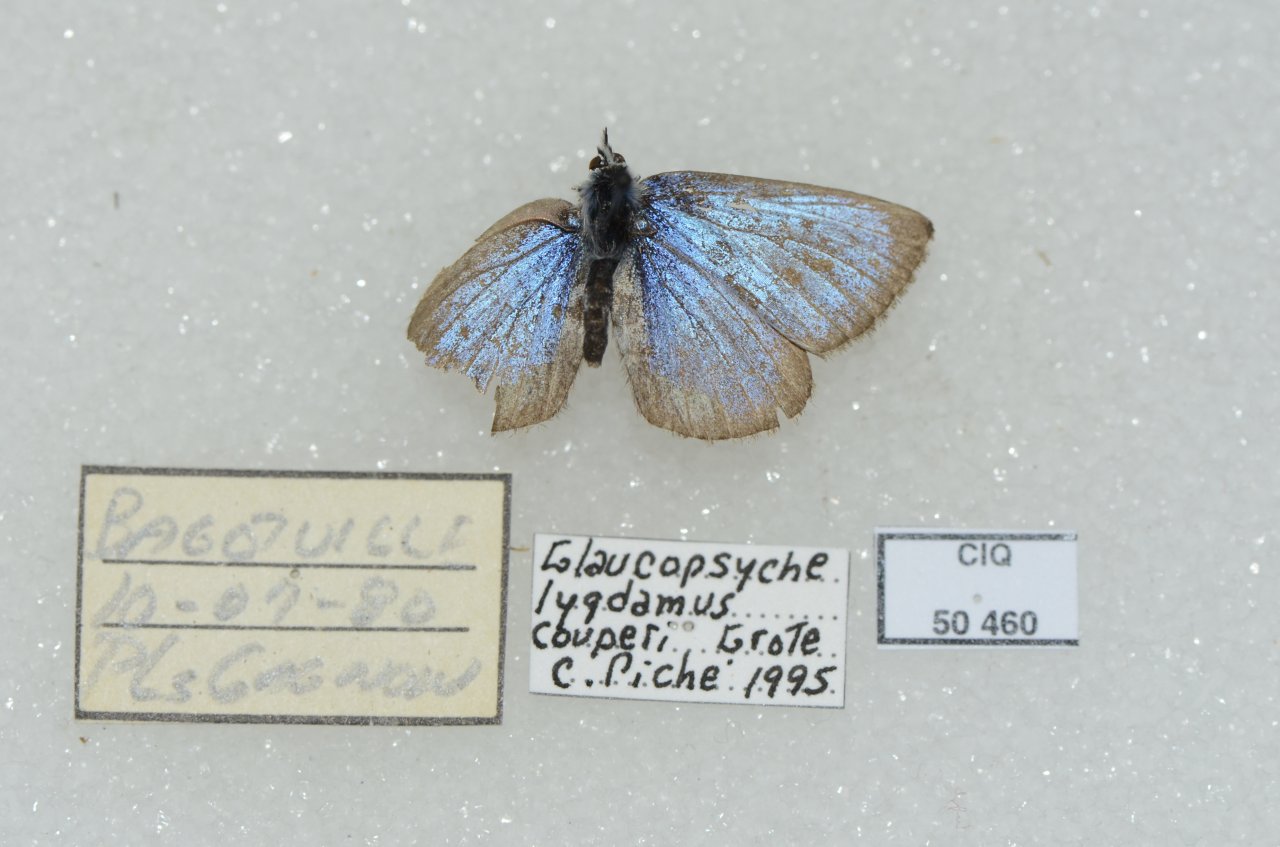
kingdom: Animalia
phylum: Arthropoda
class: Insecta
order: Lepidoptera
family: Lycaenidae
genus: Glaucopsyche
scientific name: Glaucopsyche lygdamus
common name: Silvery Blue
